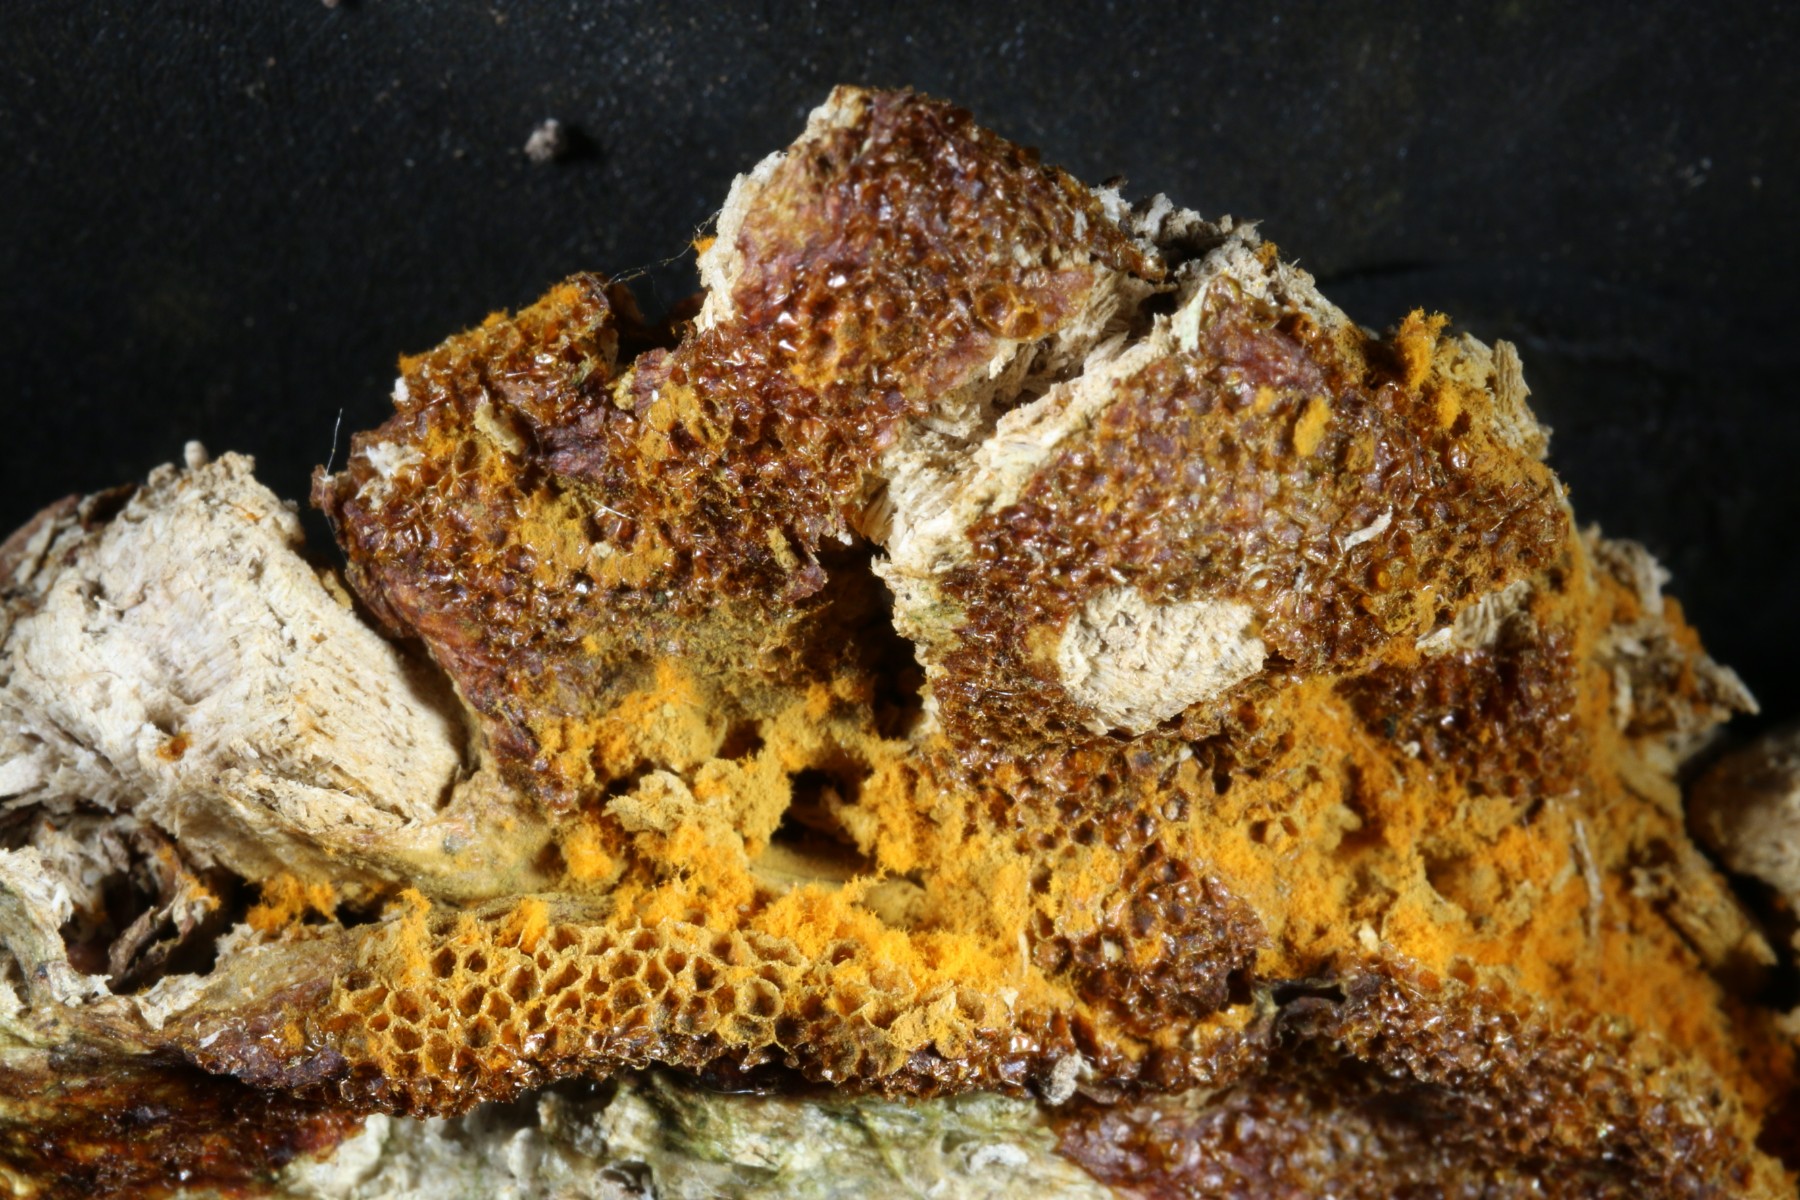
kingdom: Protozoa
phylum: Mycetozoa
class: Myxomycetes
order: Trichiales
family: Trichiaceae
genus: Trichia
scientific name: Trichia scabra
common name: tæppe-hårbold
